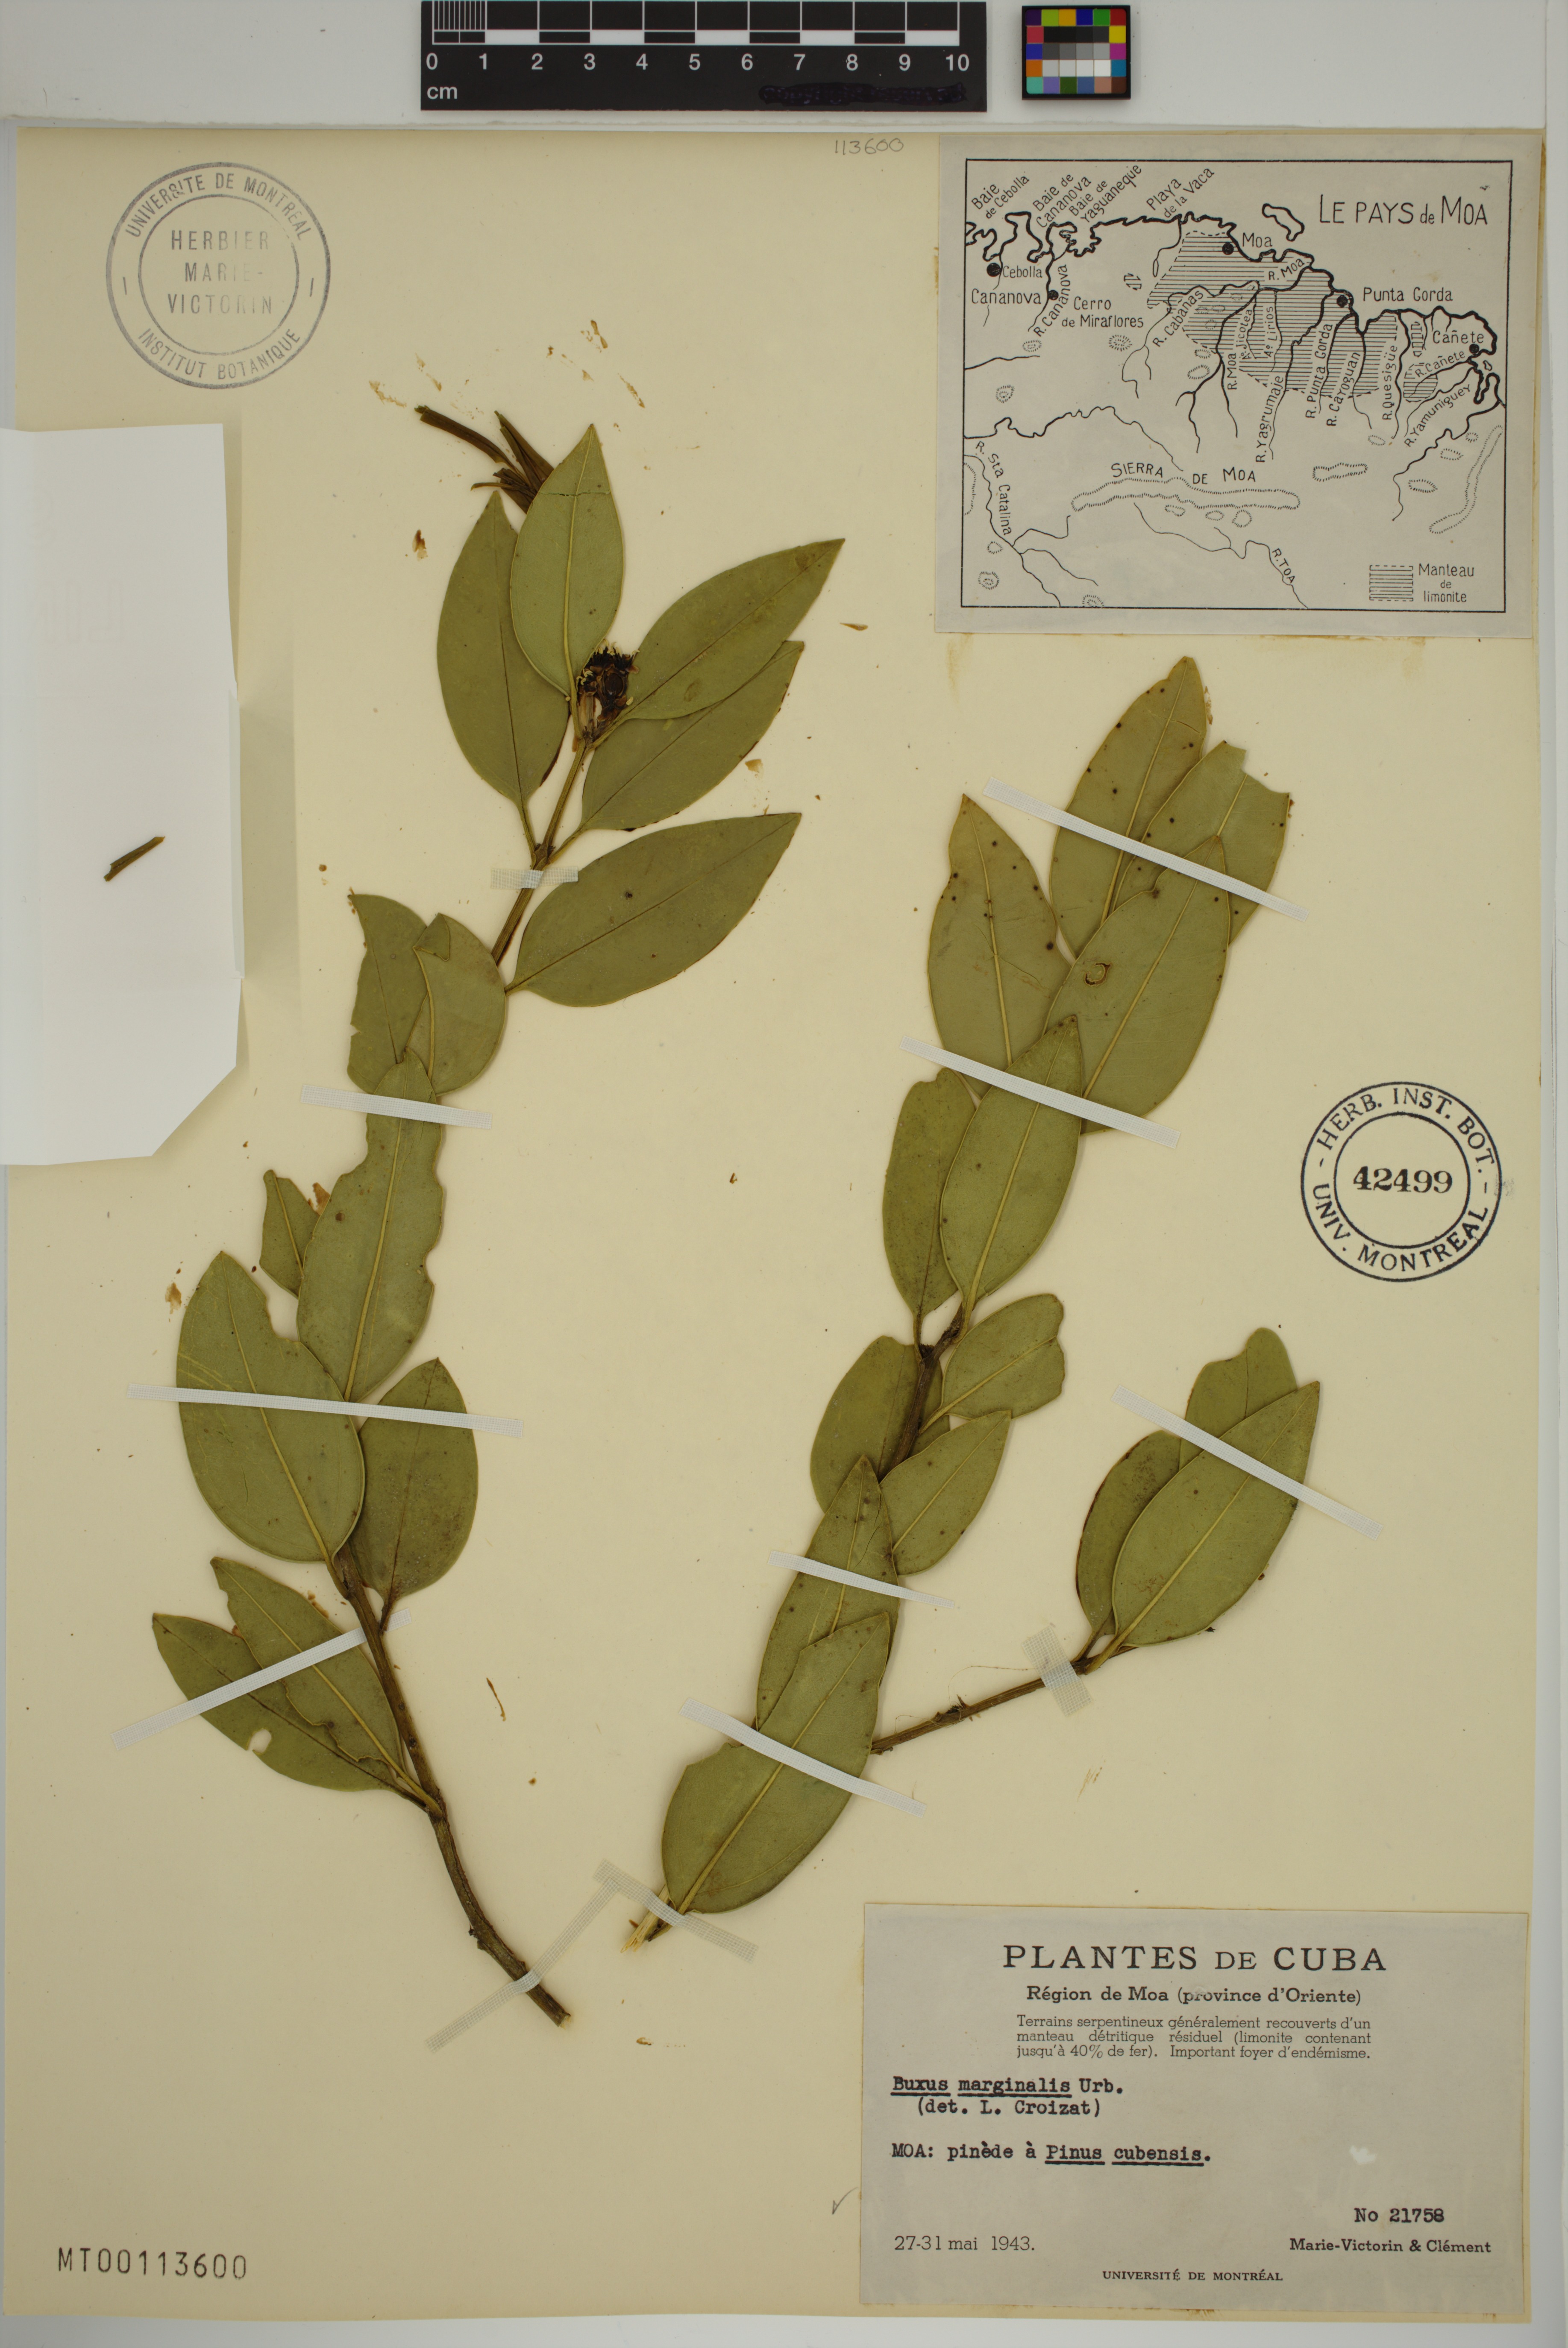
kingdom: Plantae
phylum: Tracheophyta
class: Magnoliopsida
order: Buxales
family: Buxaceae
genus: Buxus
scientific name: Buxus marginalis
